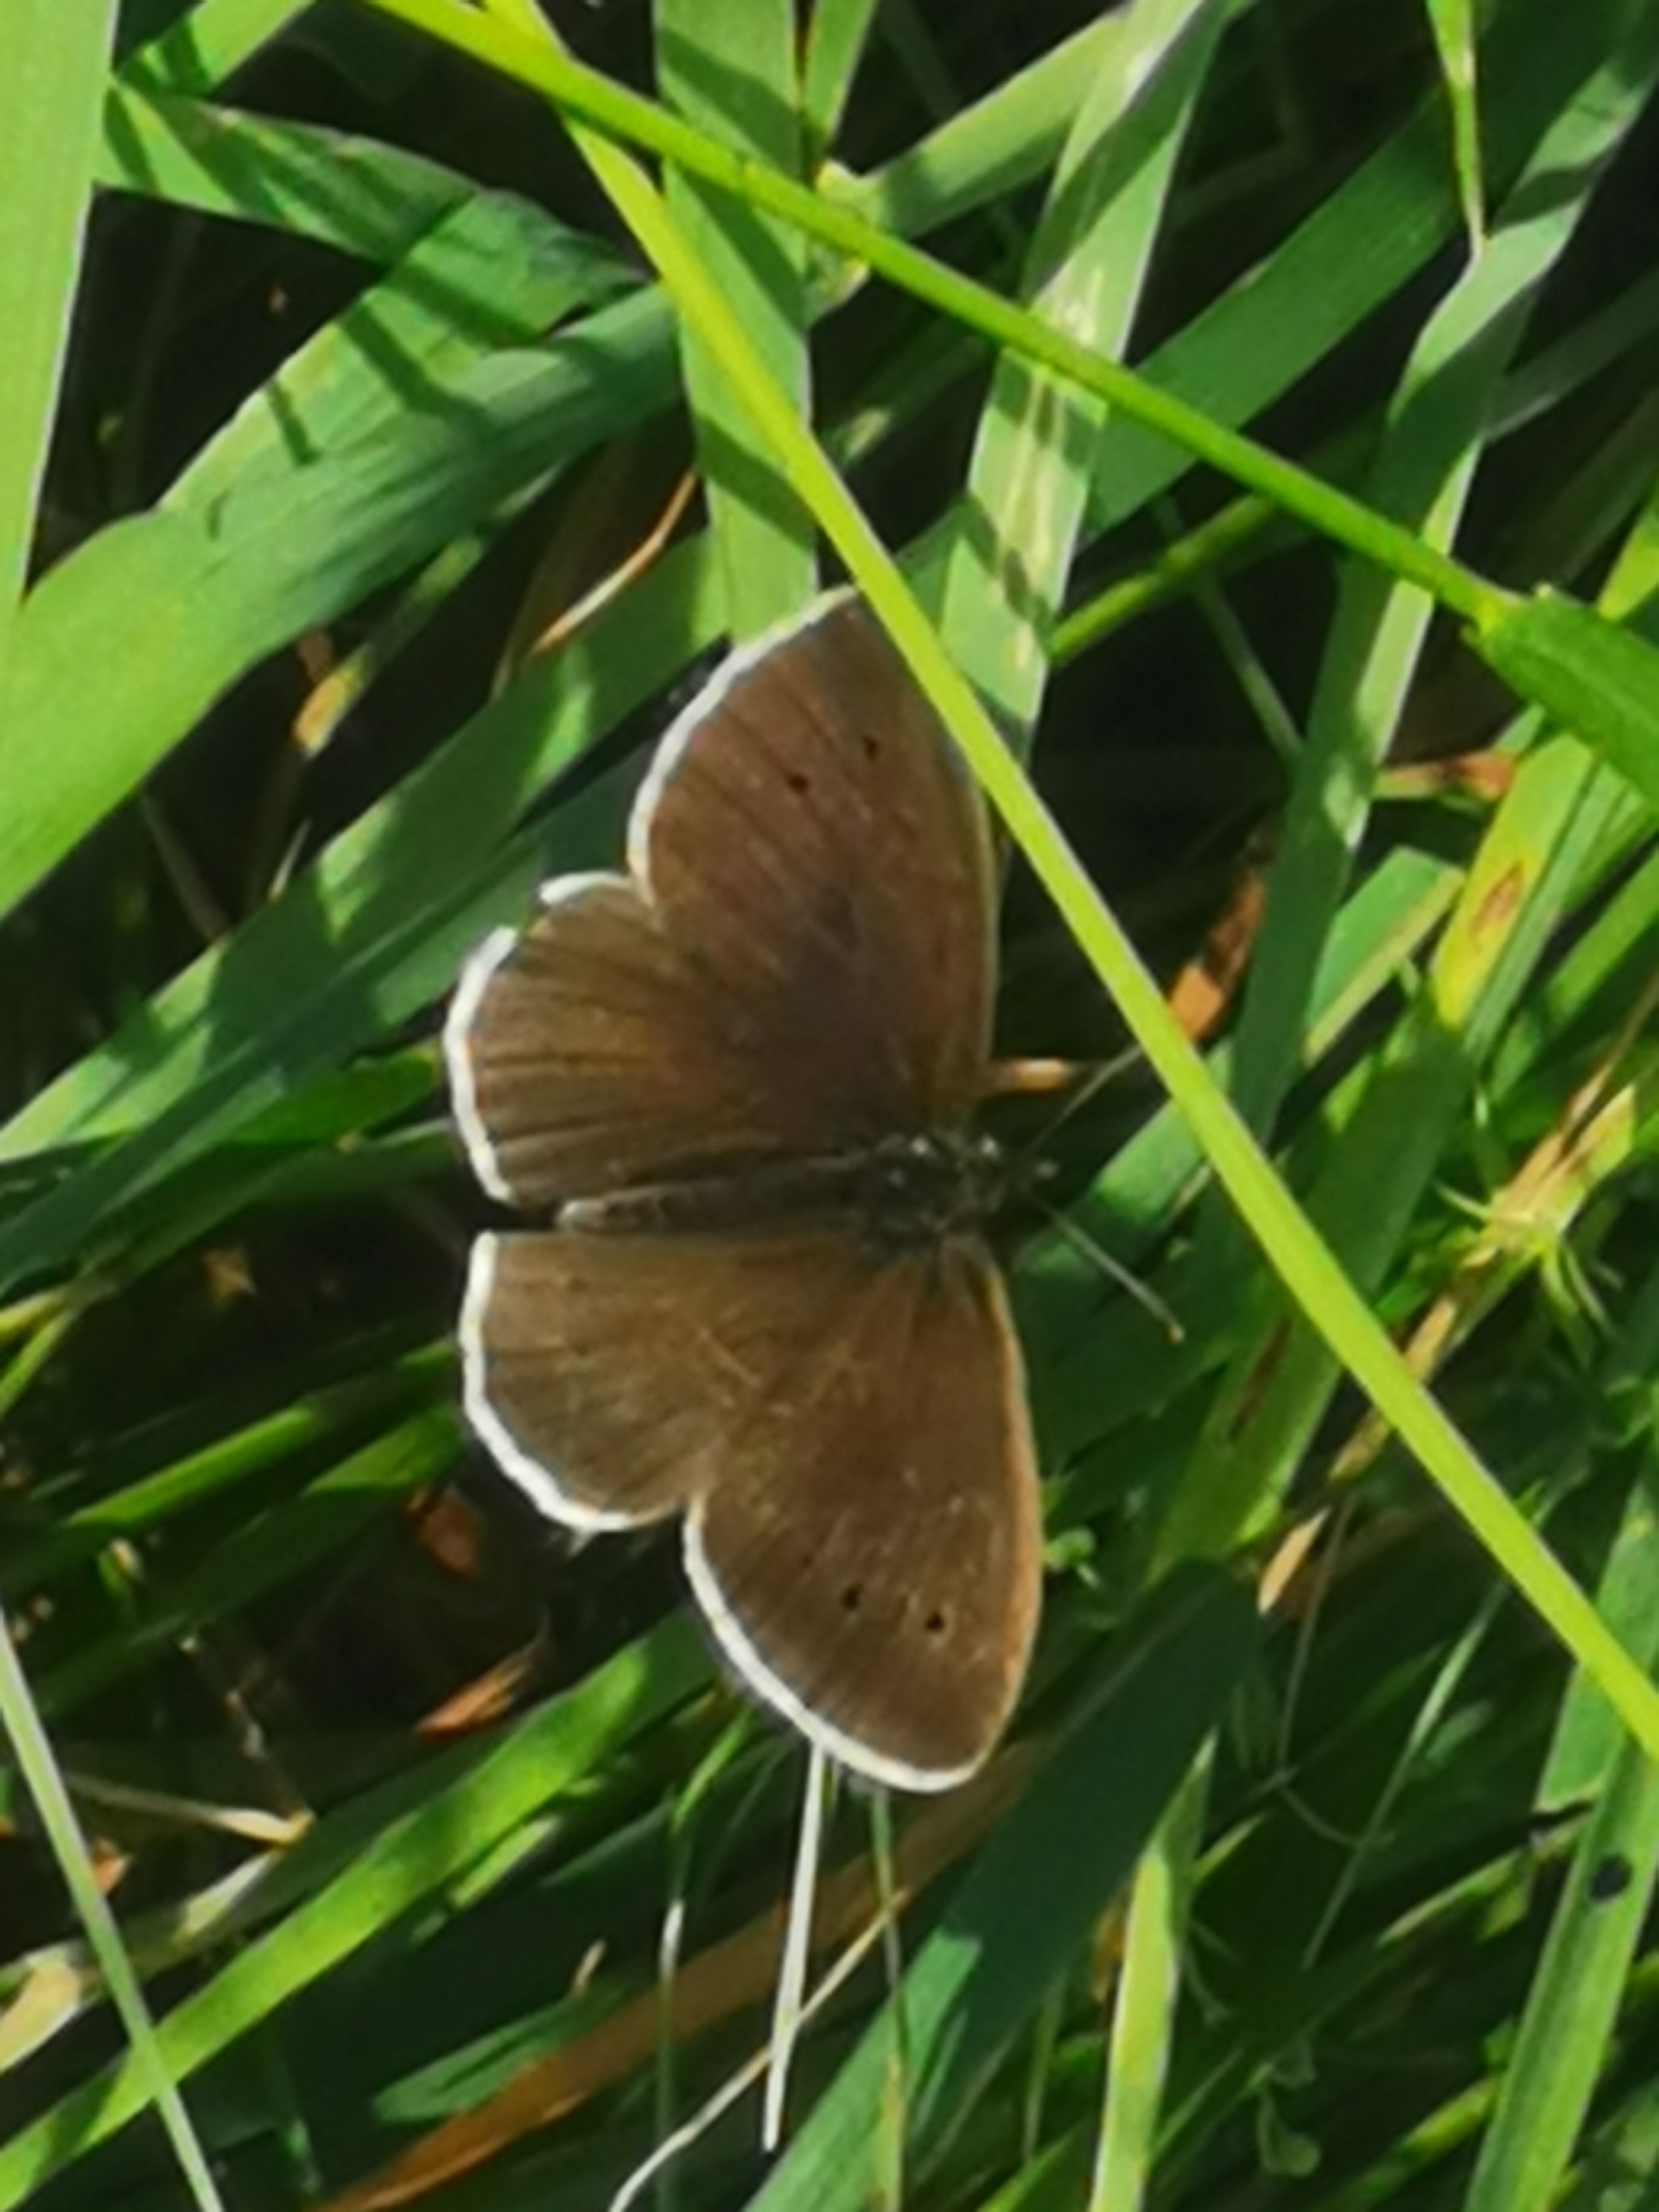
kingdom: Animalia
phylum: Arthropoda
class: Insecta
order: Lepidoptera
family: Nymphalidae
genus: Aphantopus
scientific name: Aphantopus hyperantus
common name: Engrandøje
